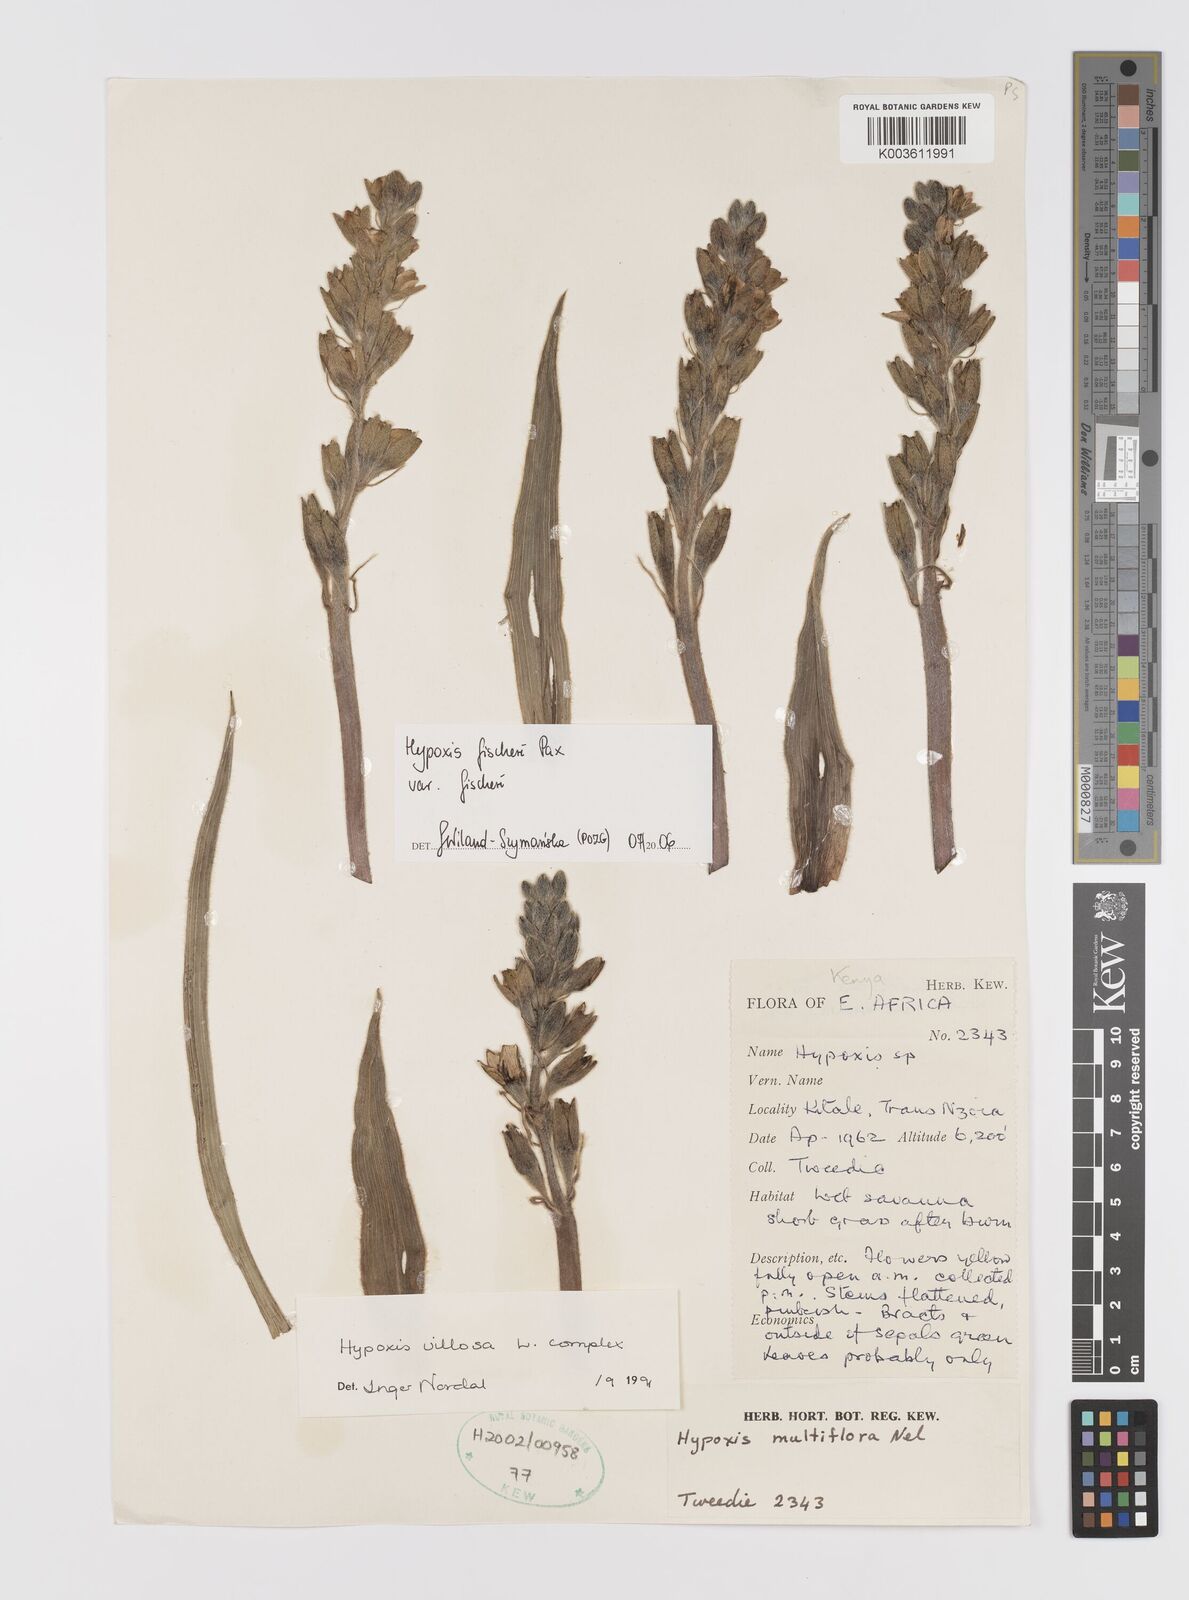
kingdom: Plantae
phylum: Tracheophyta
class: Liliopsida
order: Asparagales
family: Hypoxidaceae
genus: Hypoxis
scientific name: Hypoxis fischeri
